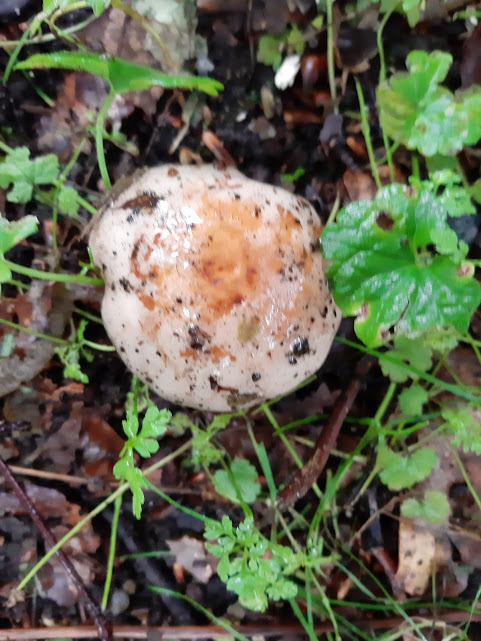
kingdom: Fungi
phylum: Basidiomycota
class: Agaricomycetes
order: Agaricales
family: Hymenogastraceae
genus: Hebeloma
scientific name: Hebeloma
